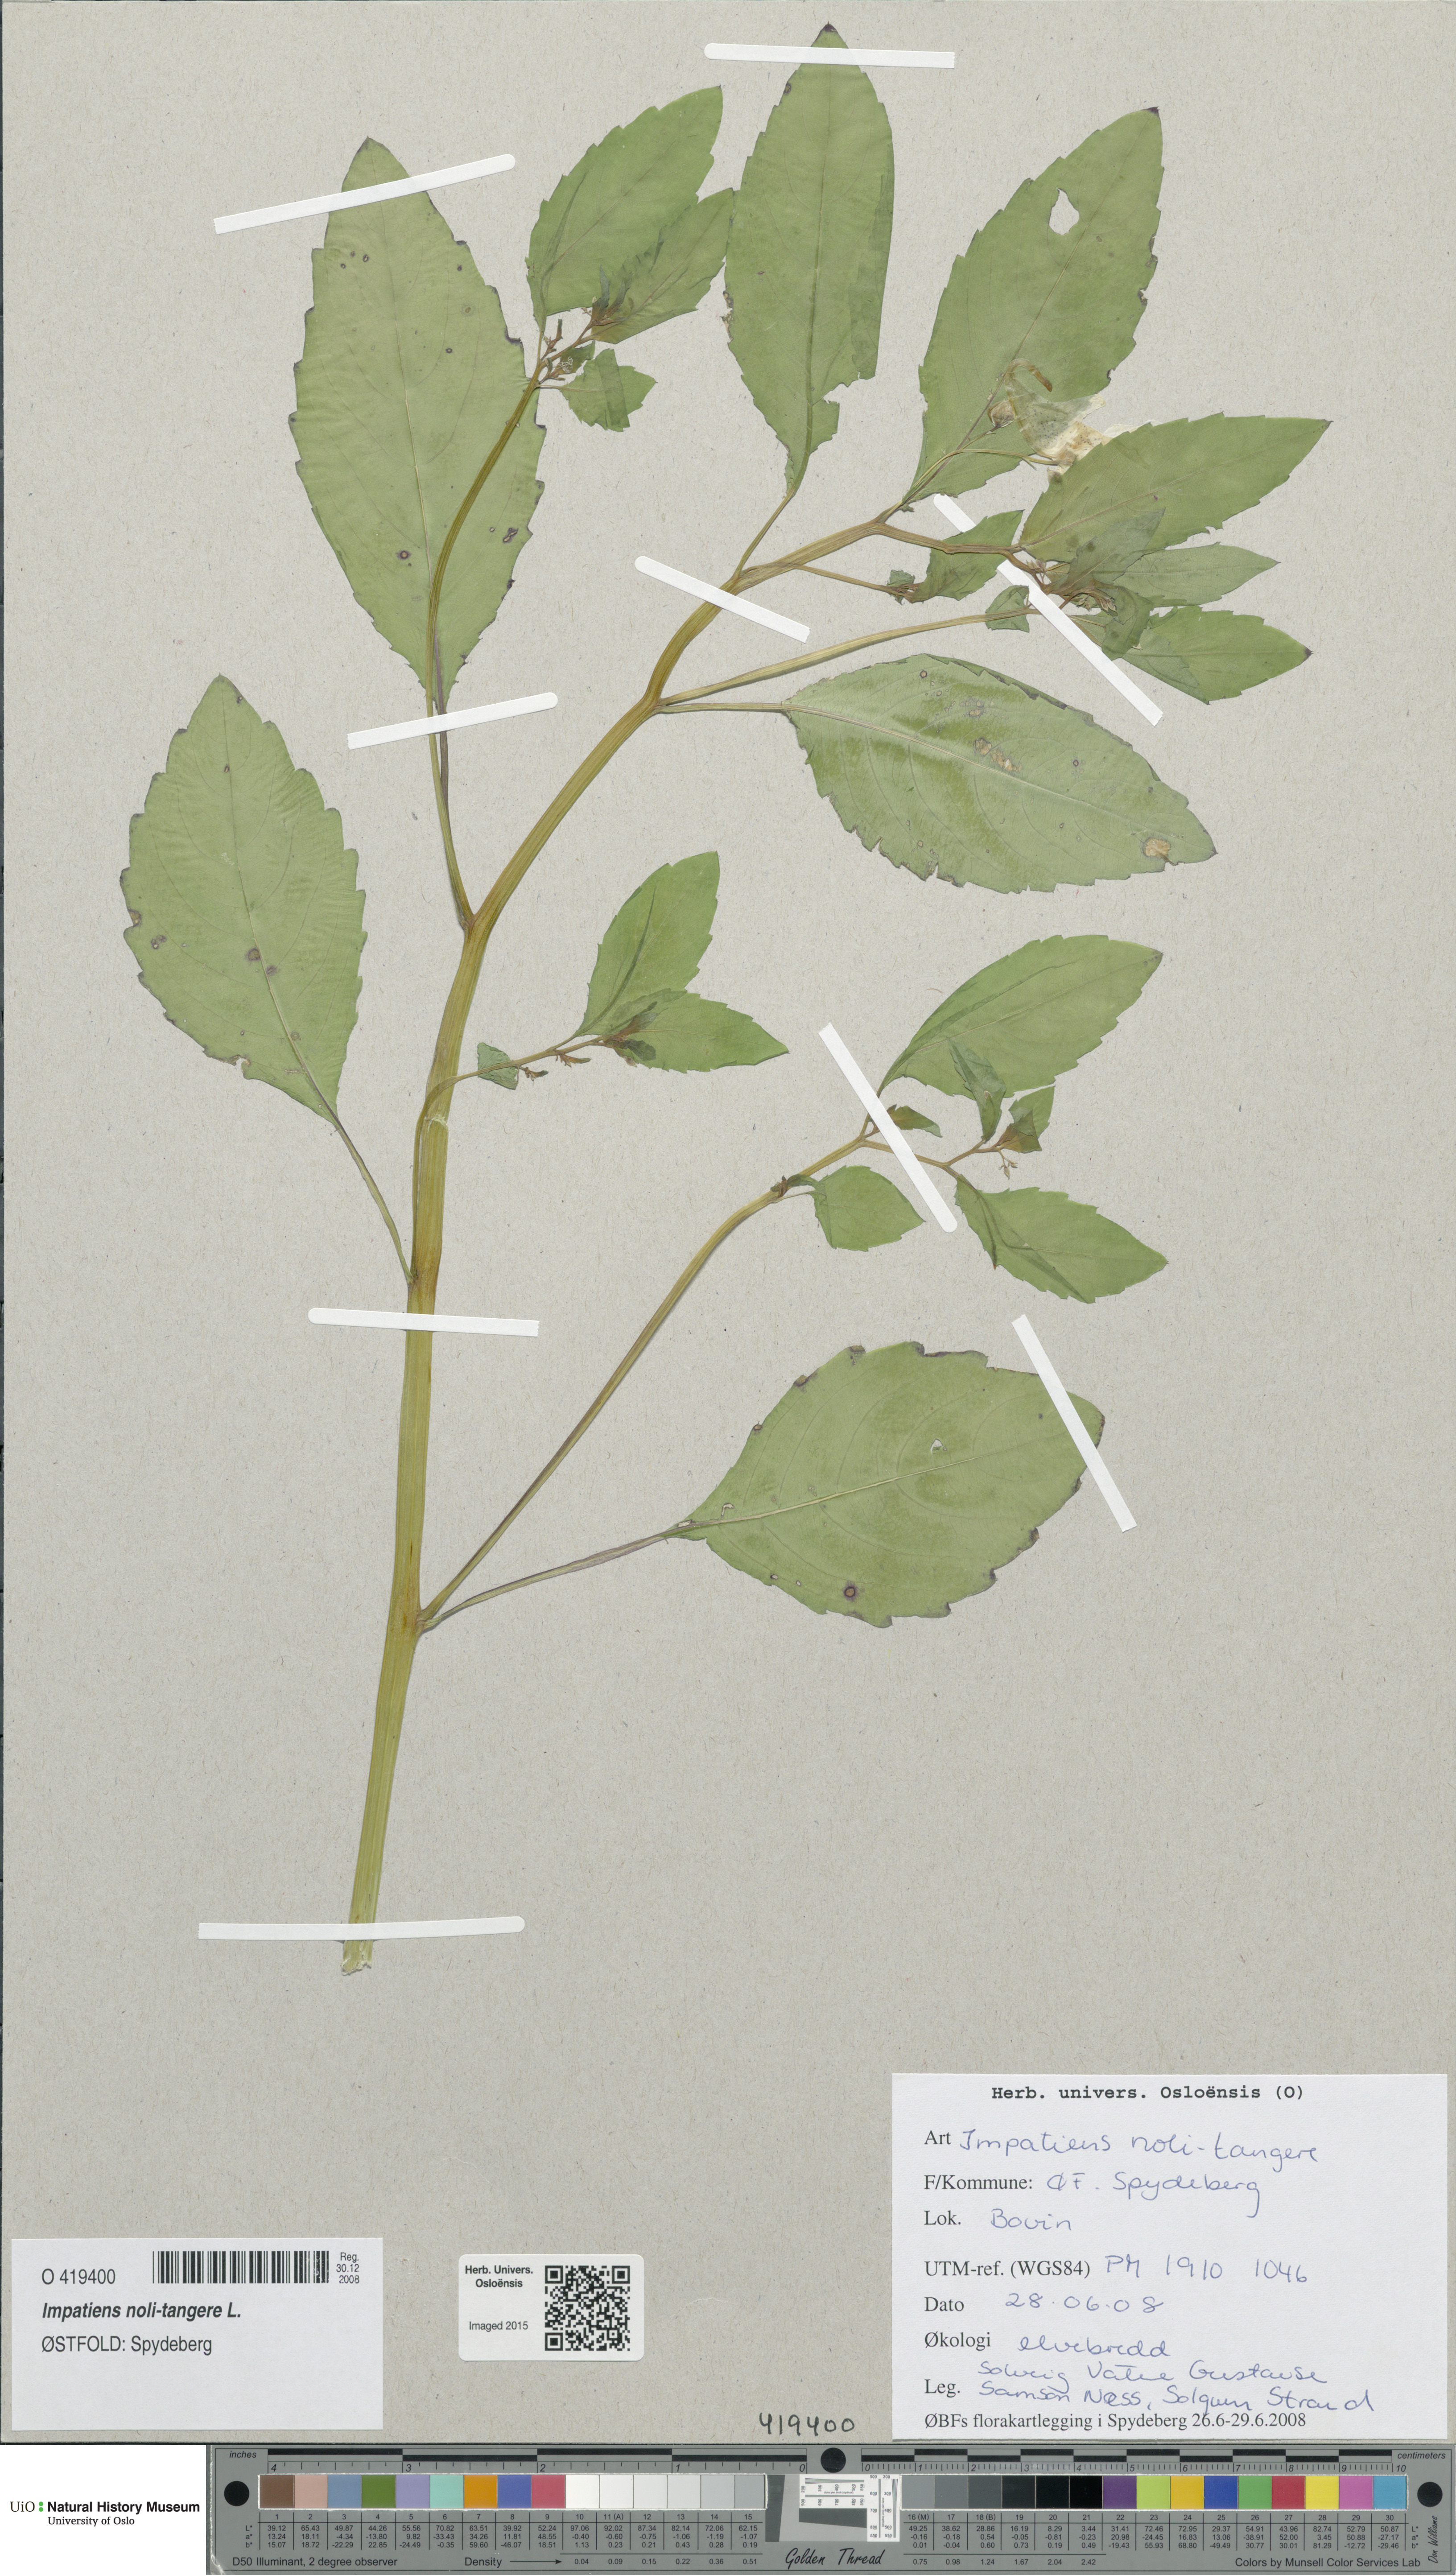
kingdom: Plantae
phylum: Tracheophyta
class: Magnoliopsida
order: Ericales
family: Balsaminaceae
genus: Impatiens
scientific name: Impatiens noli-tangere
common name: Touch-me-not balsam
